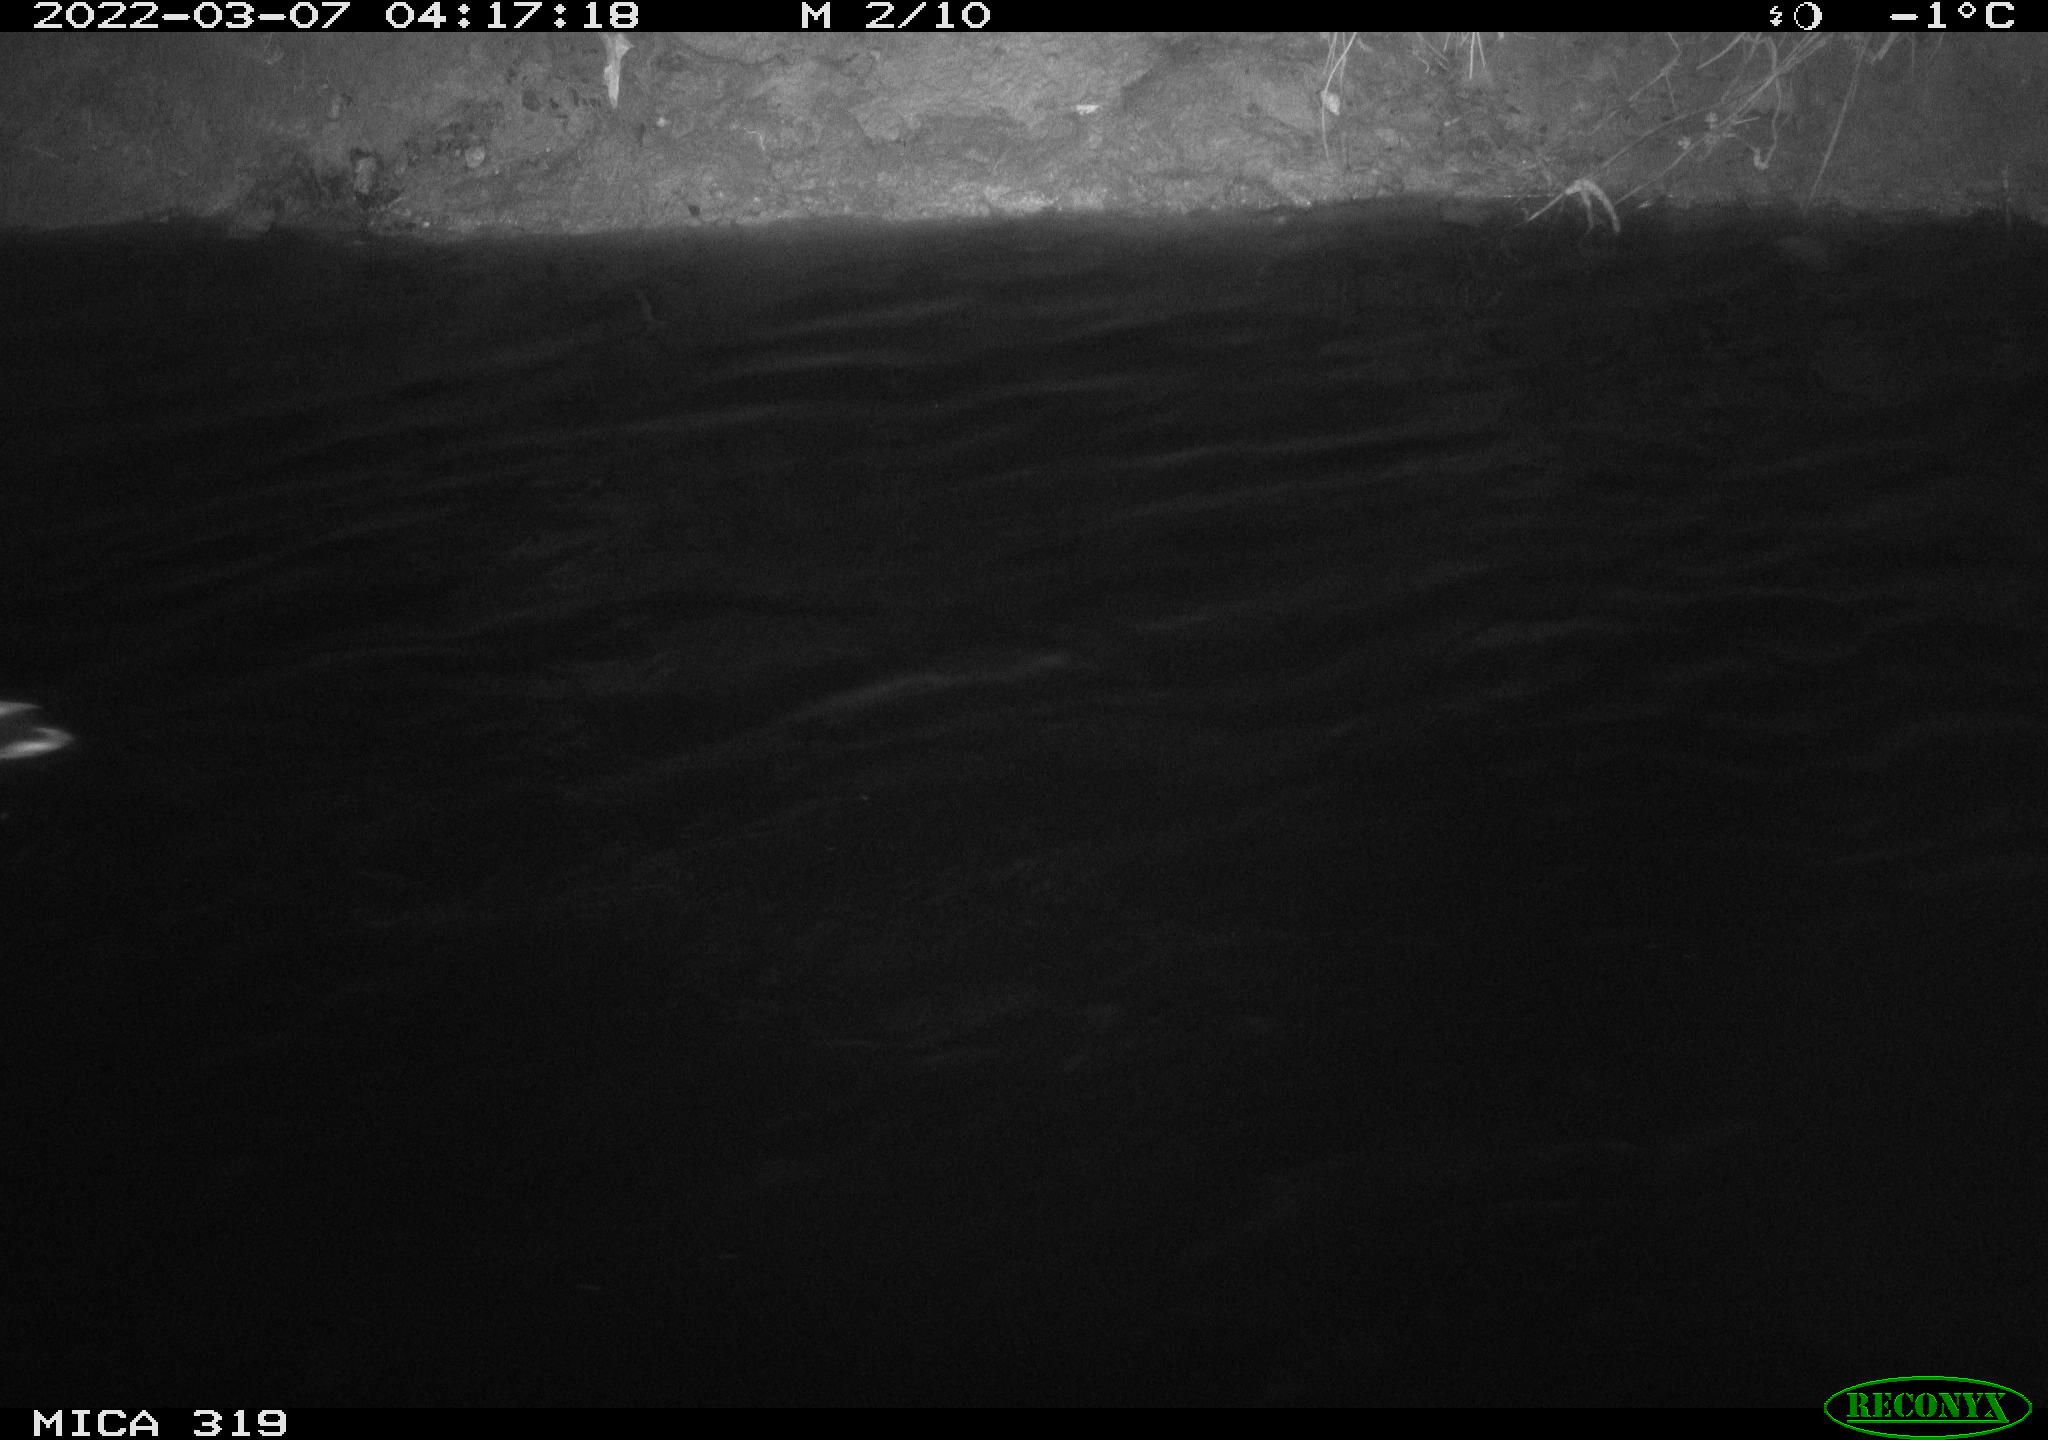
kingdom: Animalia
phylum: Chordata
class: Aves
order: Anseriformes
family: Anatidae
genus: Anas
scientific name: Anas platyrhynchos
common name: Mallard
